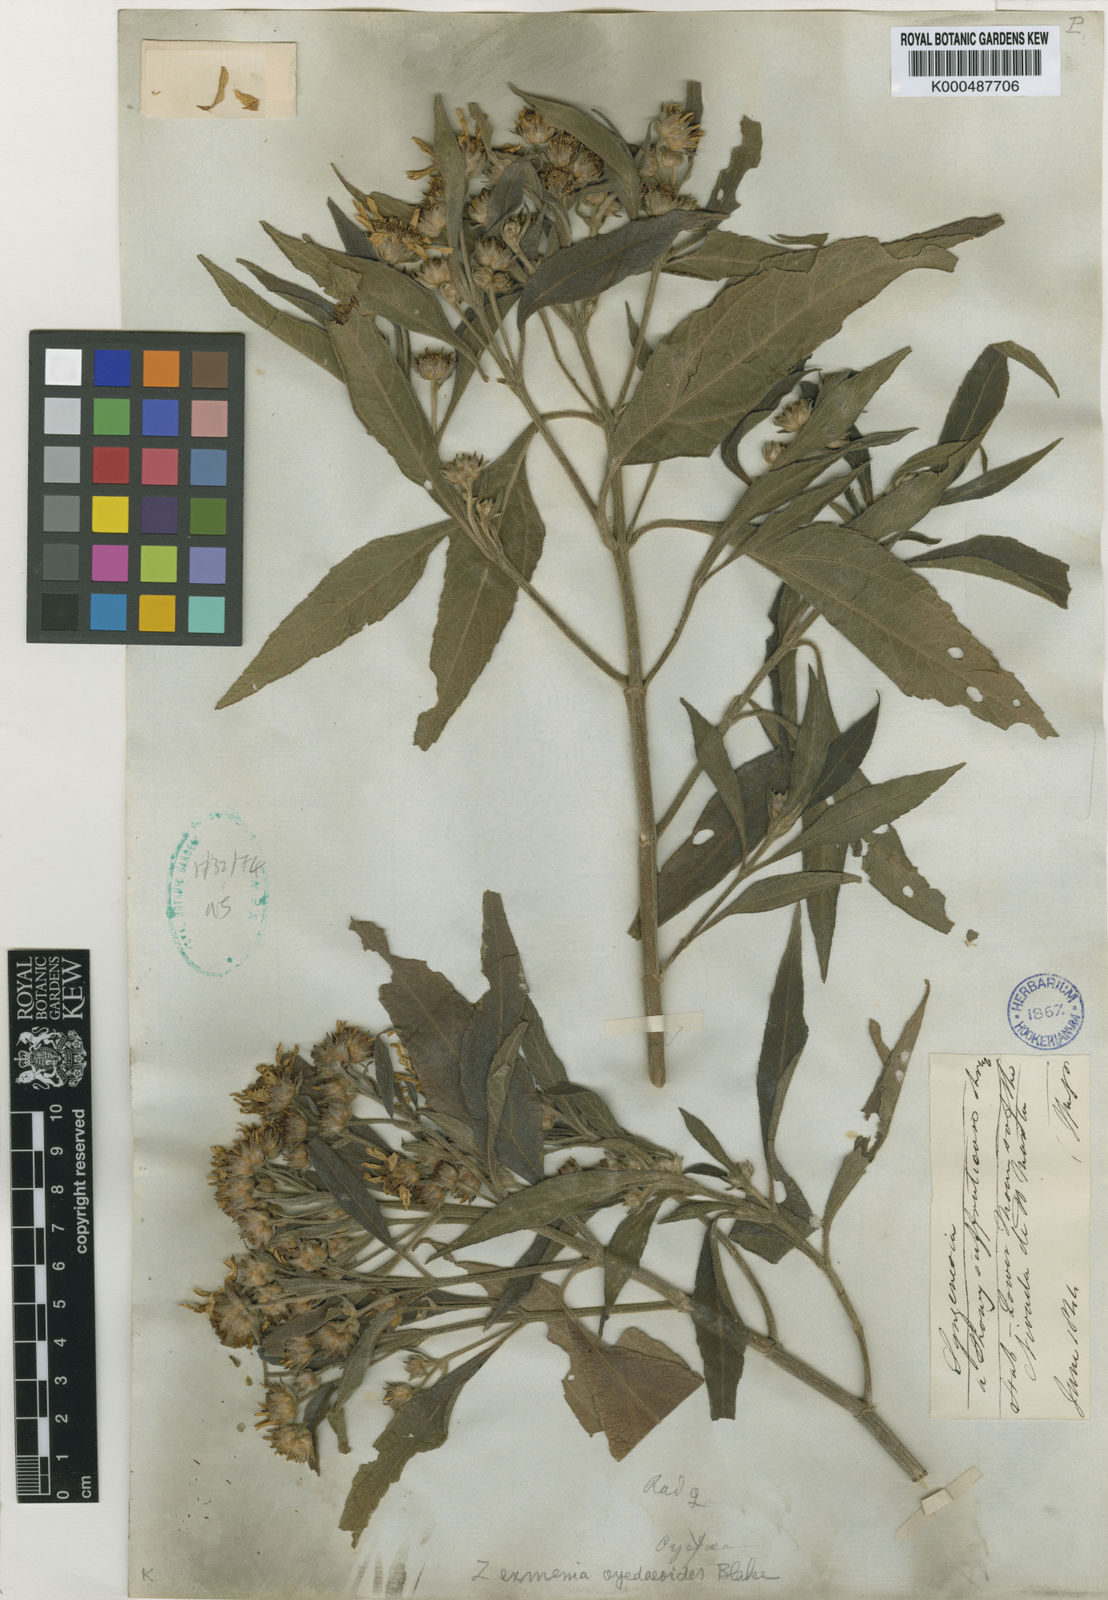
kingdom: Plantae
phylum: Tracheophyta
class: Magnoliopsida
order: Asterales
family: Asteraceae
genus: Zexmenia
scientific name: Zexmenia oyedaeoides
